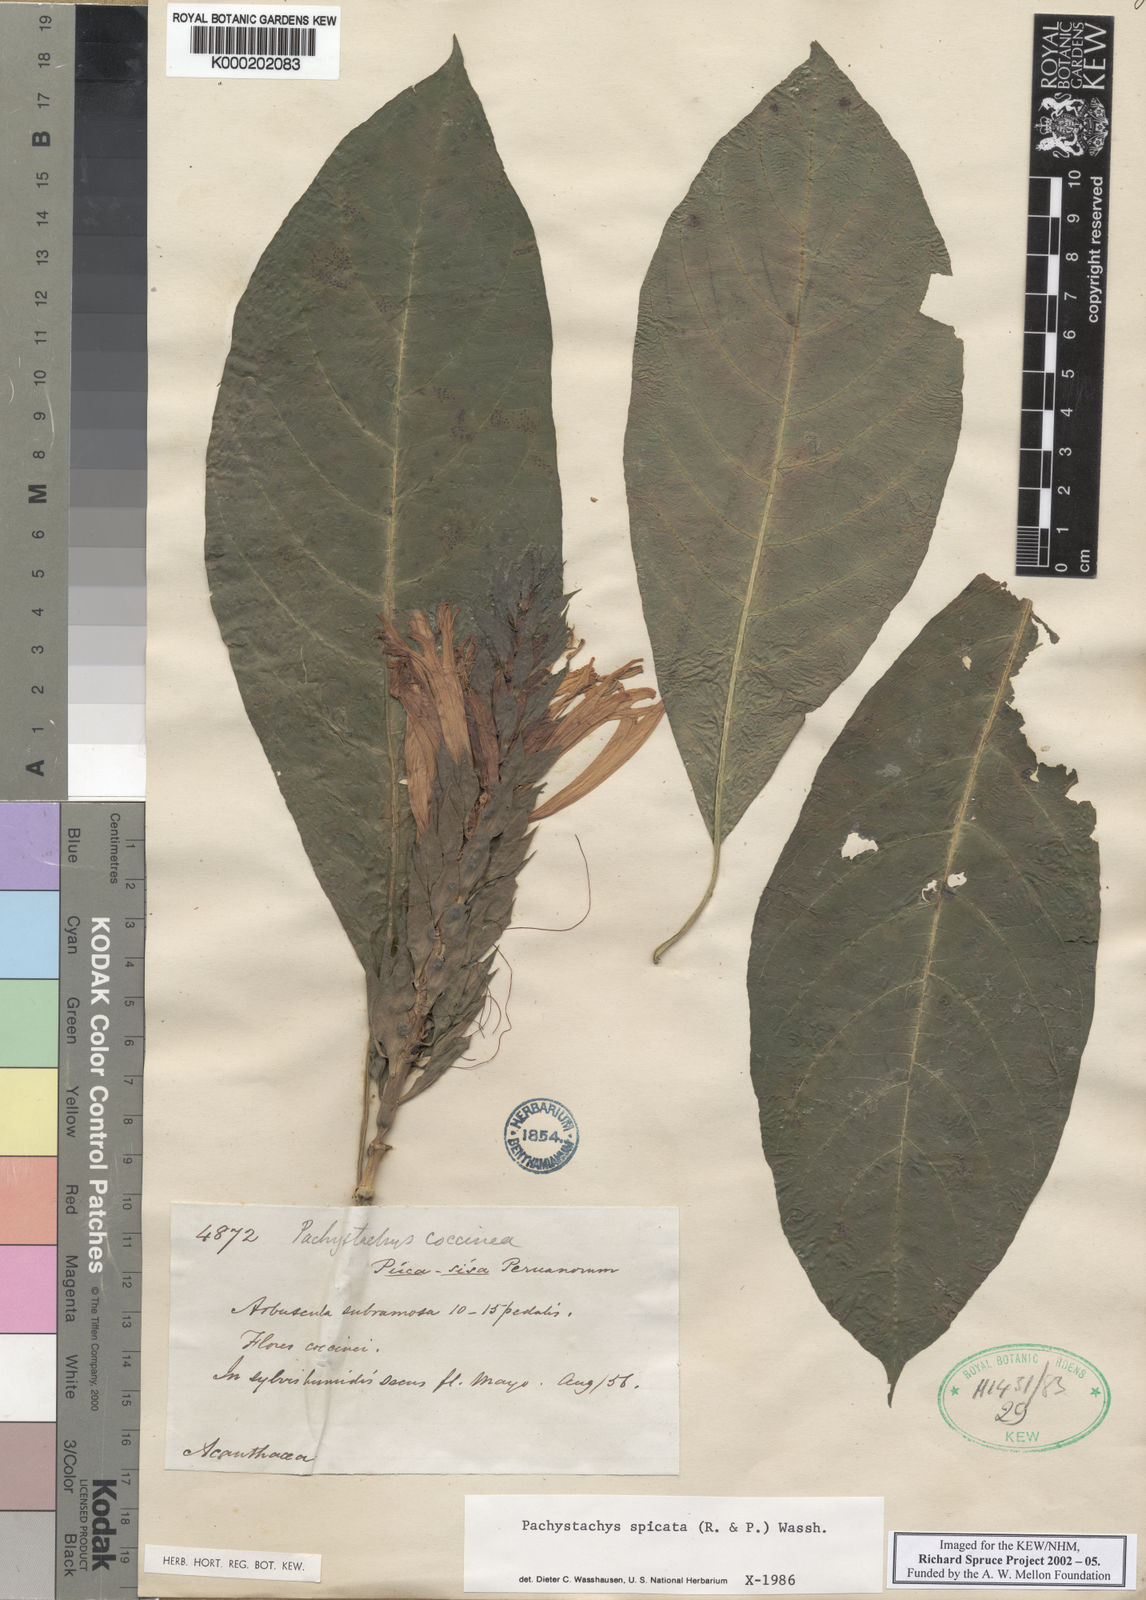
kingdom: Plantae
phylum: Tracheophyta
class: Magnoliopsida
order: Lamiales
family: Acanthaceae
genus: Pachystachys
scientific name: Pachystachys spicata
